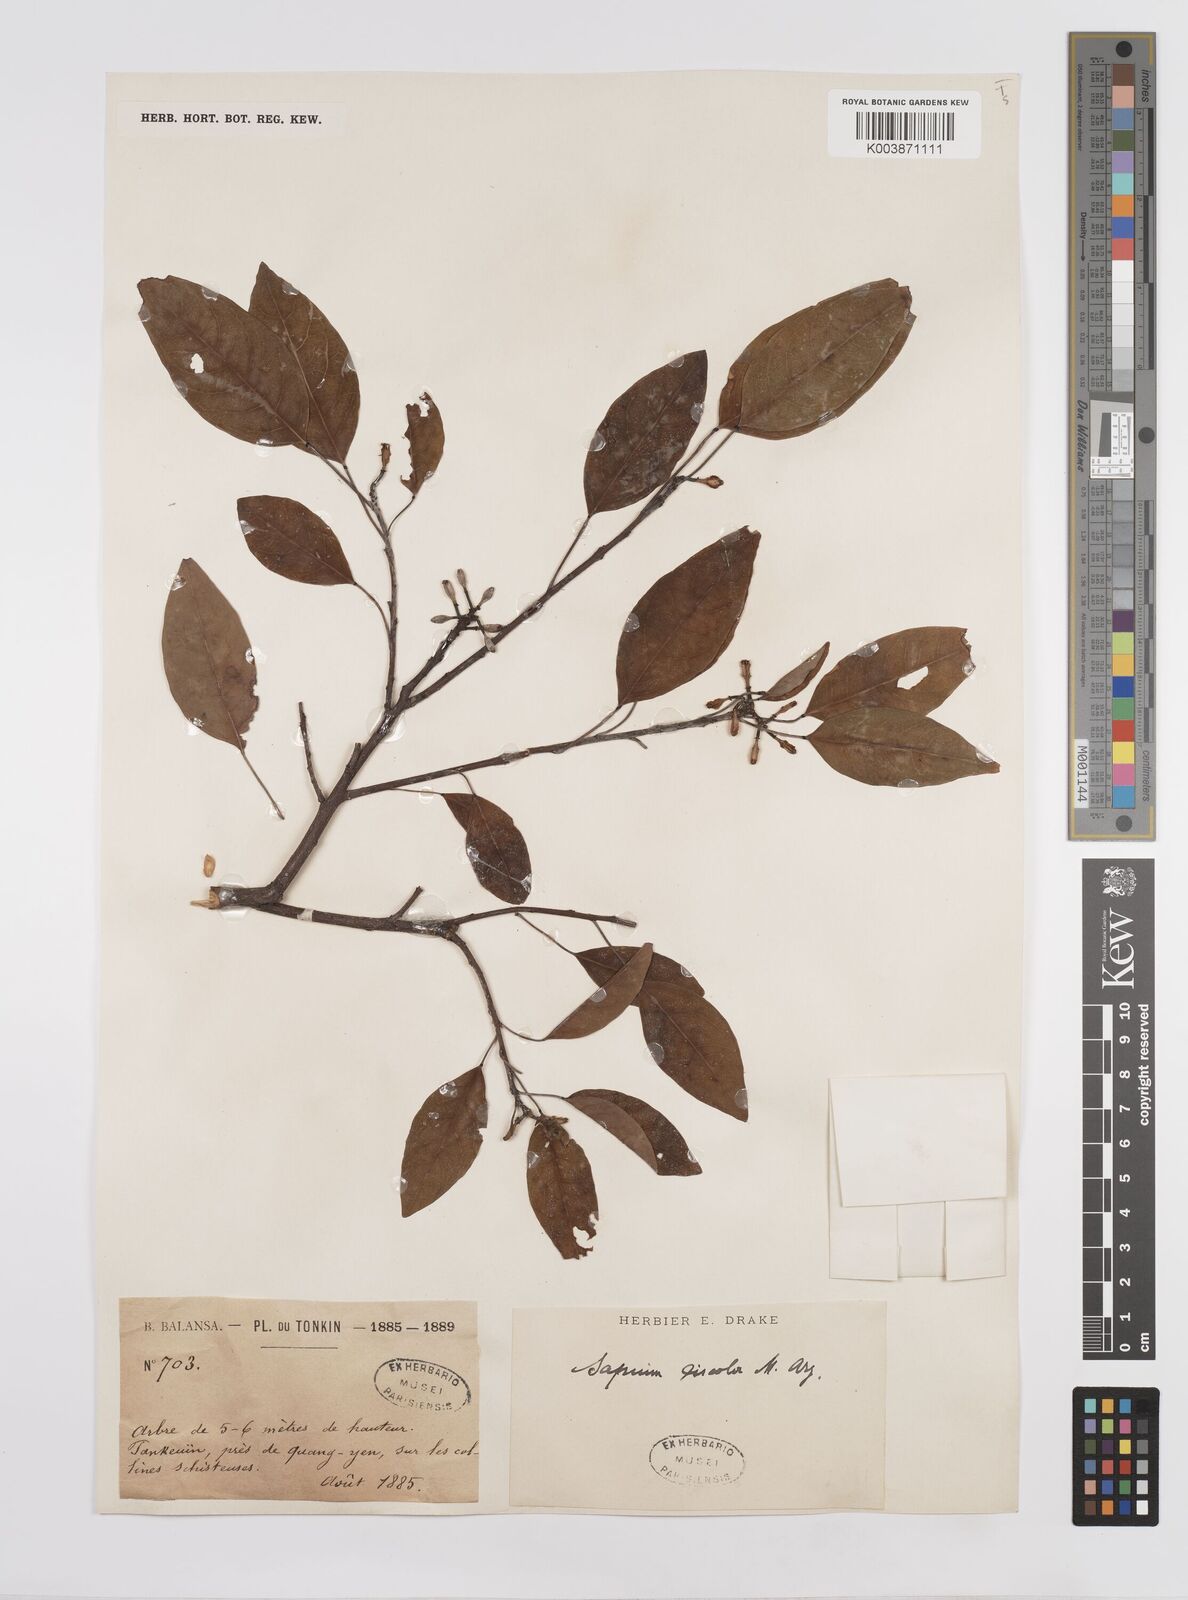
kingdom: Plantae
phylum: Tracheophyta
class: Magnoliopsida
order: Malpighiales
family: Euphorbiaceae
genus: Triadica
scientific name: Triadica cochinchinensis
